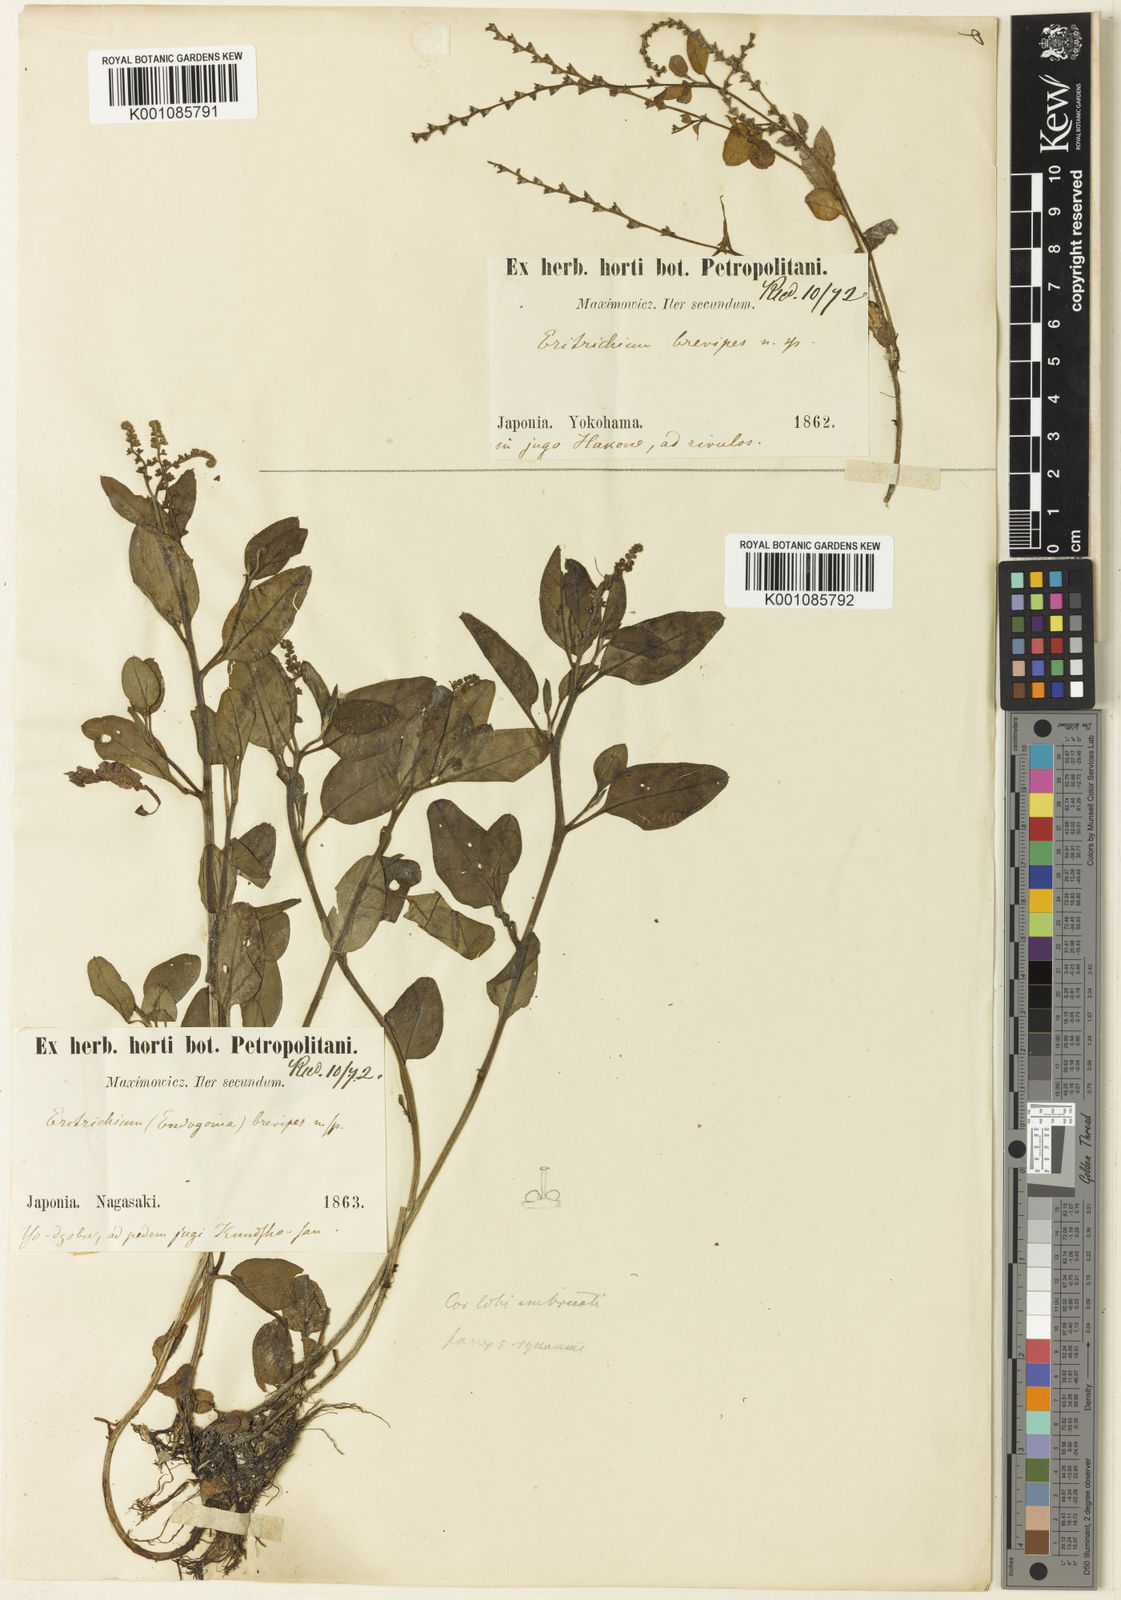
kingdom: Plantae
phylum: Tracheophyta
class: Magnoliopsida
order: Boraginales
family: Boraginaceae
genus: Trigonotis
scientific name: Trigonotis brevipes
